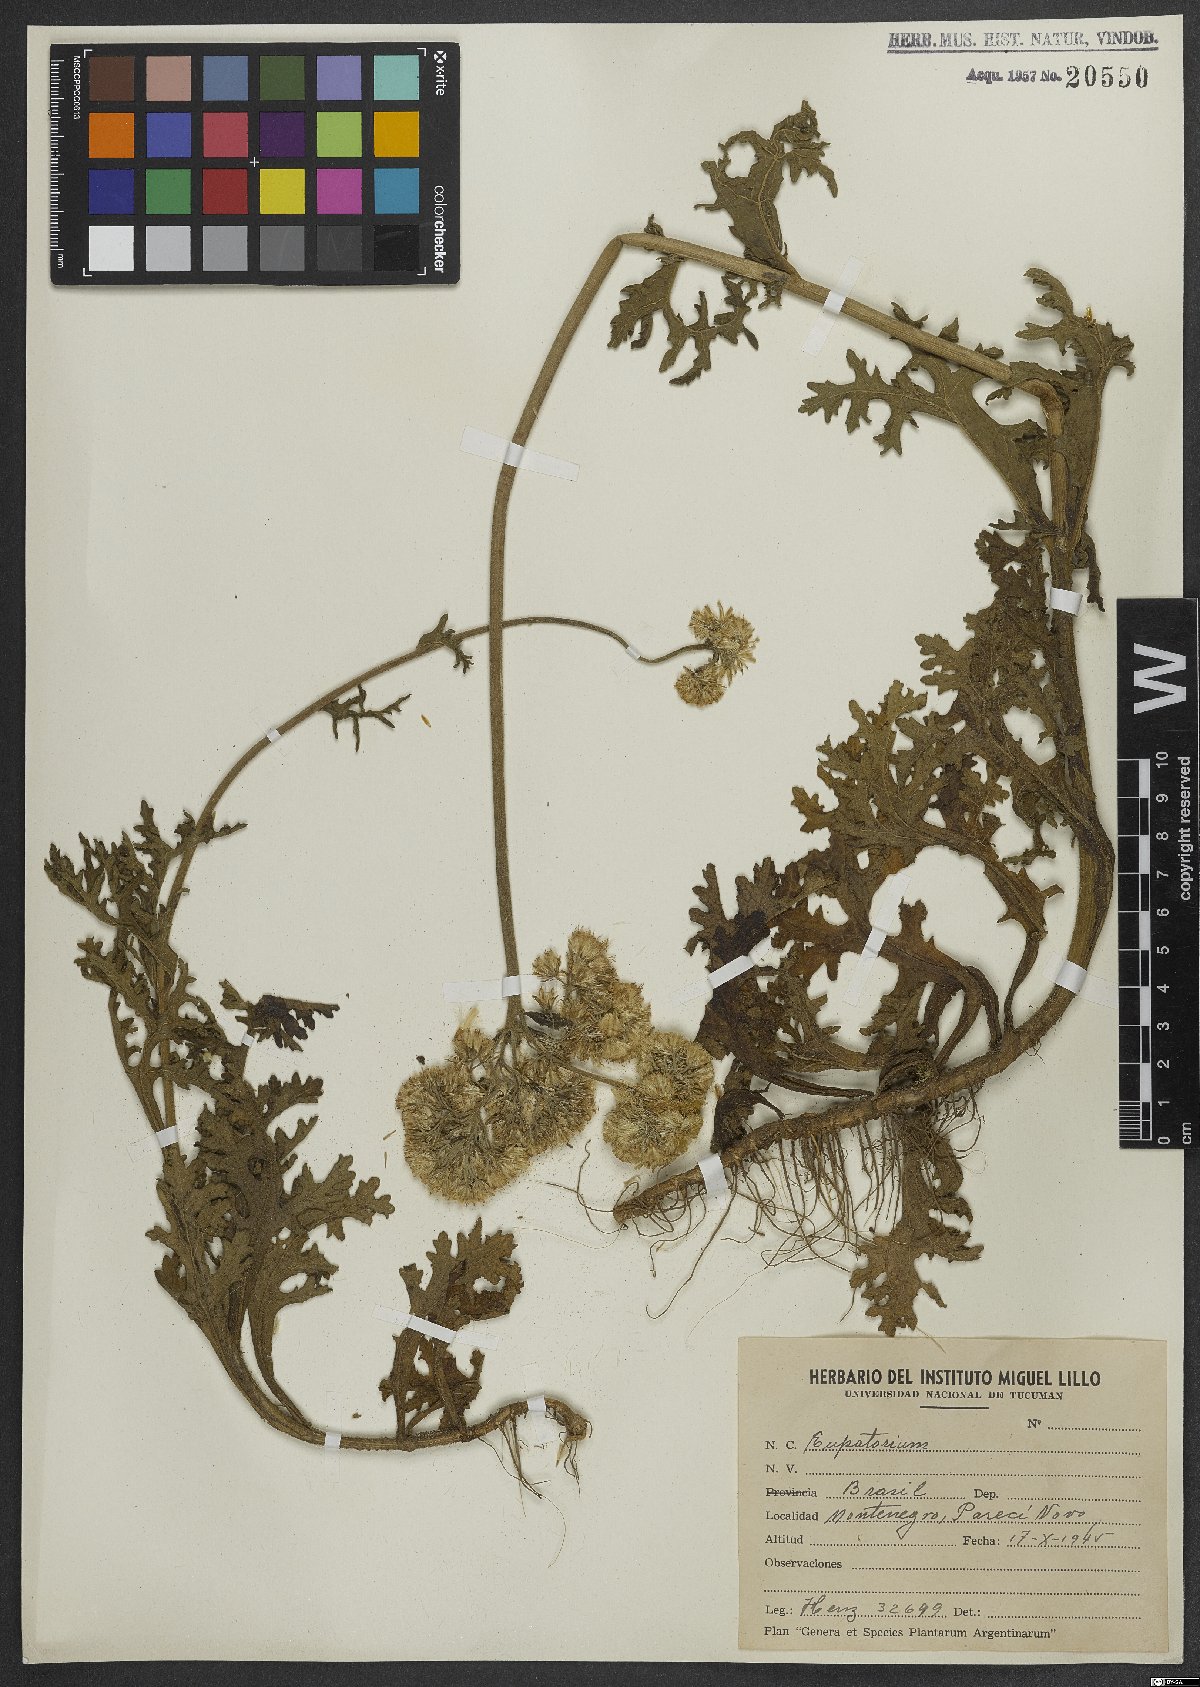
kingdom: Plantae
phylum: Tracheophyta
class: Magnoliopsida
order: Asterales
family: Asteraceae
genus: Eupatorium
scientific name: Eupatorium
